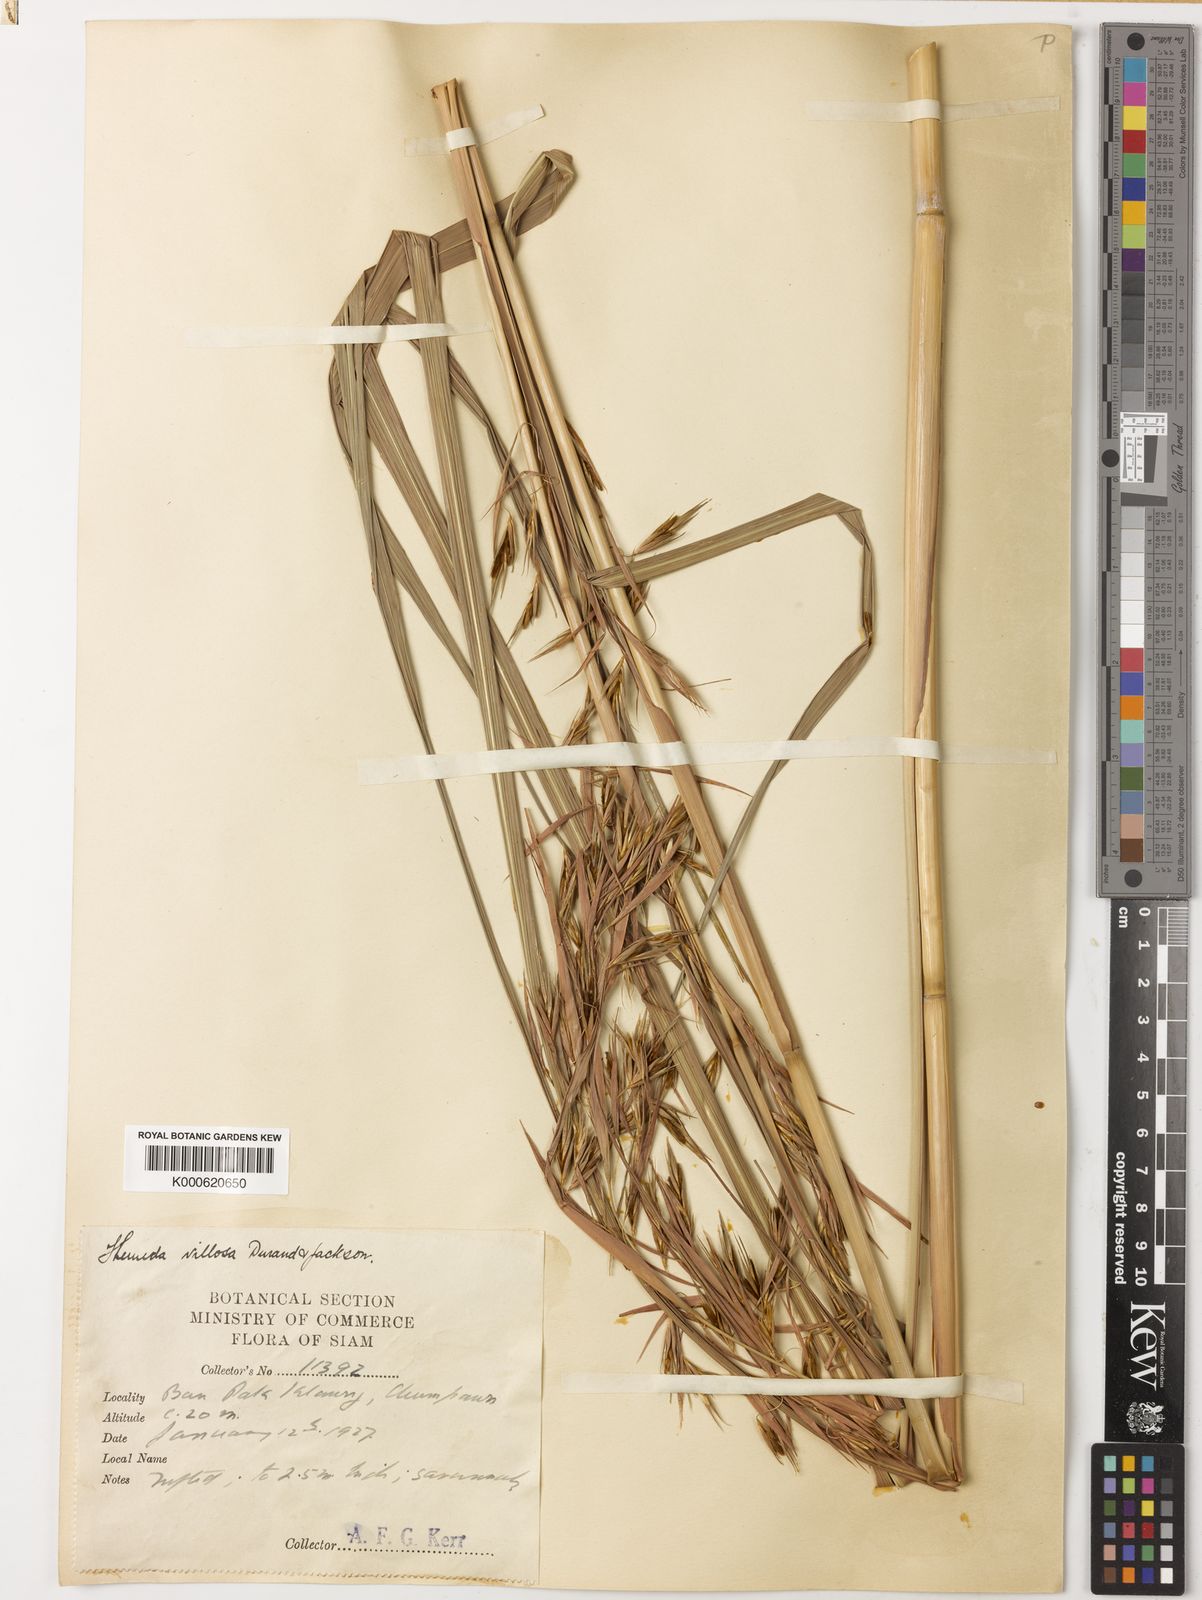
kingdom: Plantae
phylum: Tracheophyta
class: Liliopsida
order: Poales
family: Poaceae
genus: Themeda
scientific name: Themeda villosa
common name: Silky kangaroo grass
